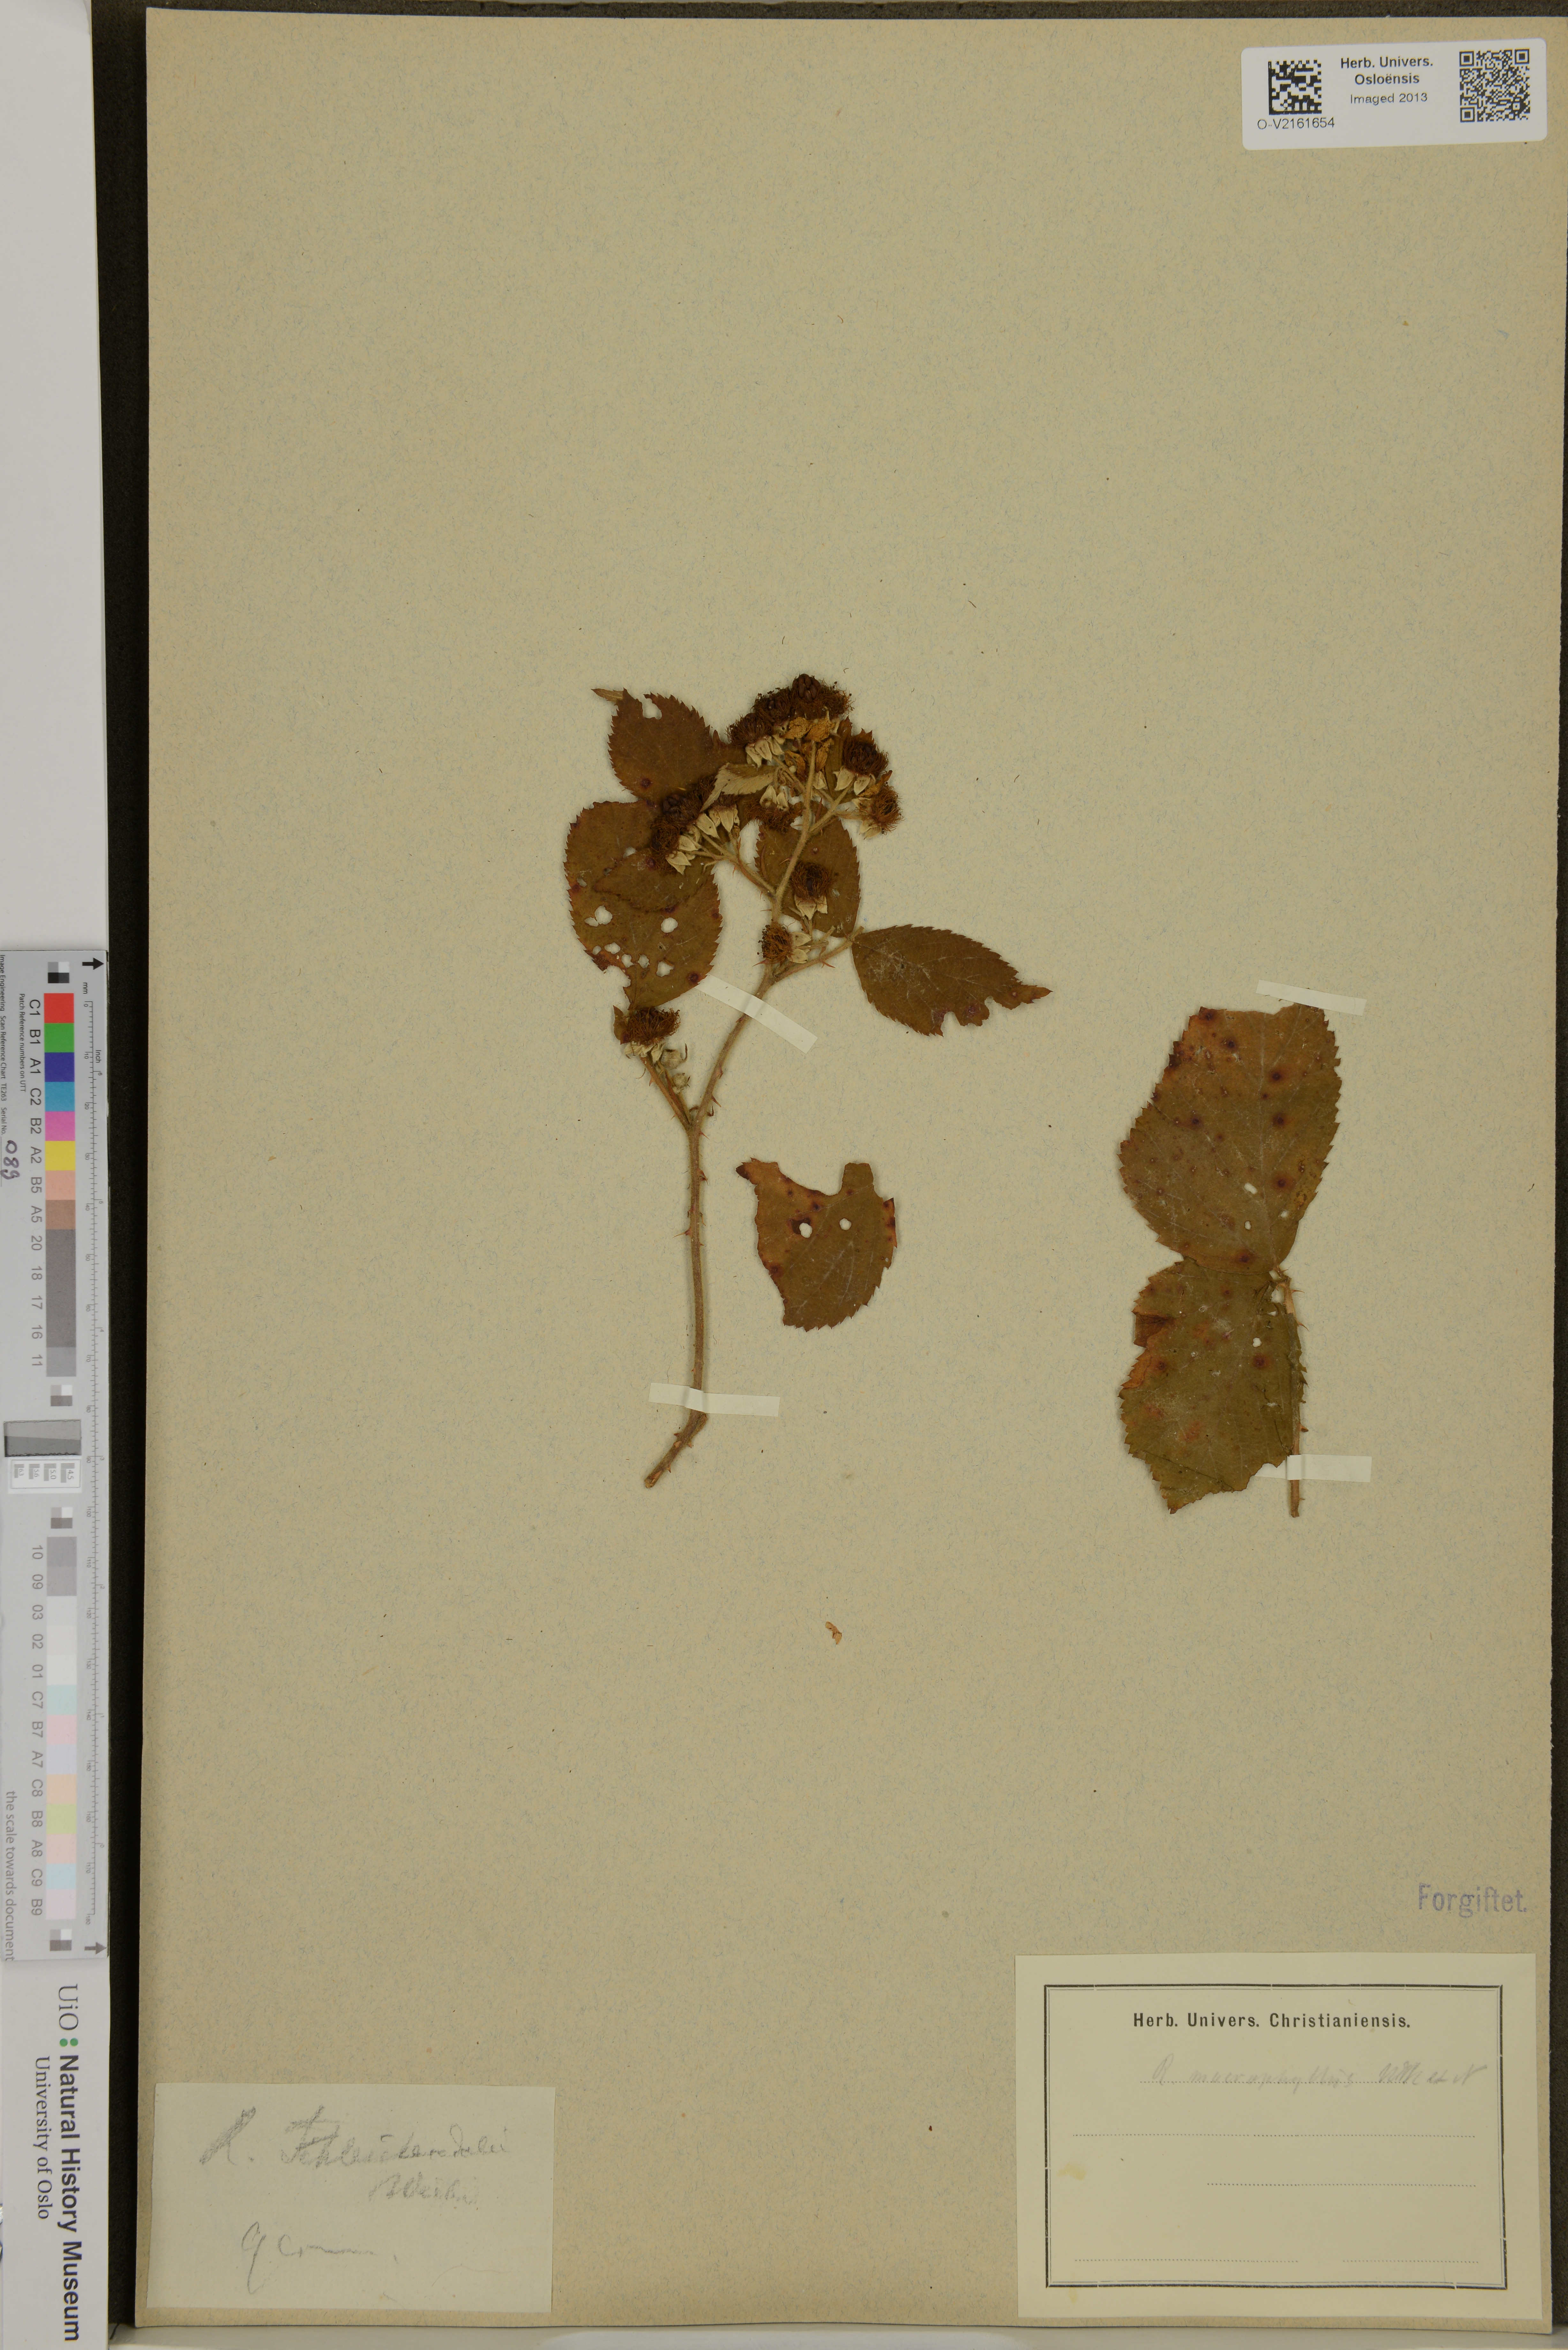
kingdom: Plantae
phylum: Tracheophyta
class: Magnoliopsida
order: Rosales
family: Rosaceae
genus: Rubus
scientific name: Rubus schlechtendalii
